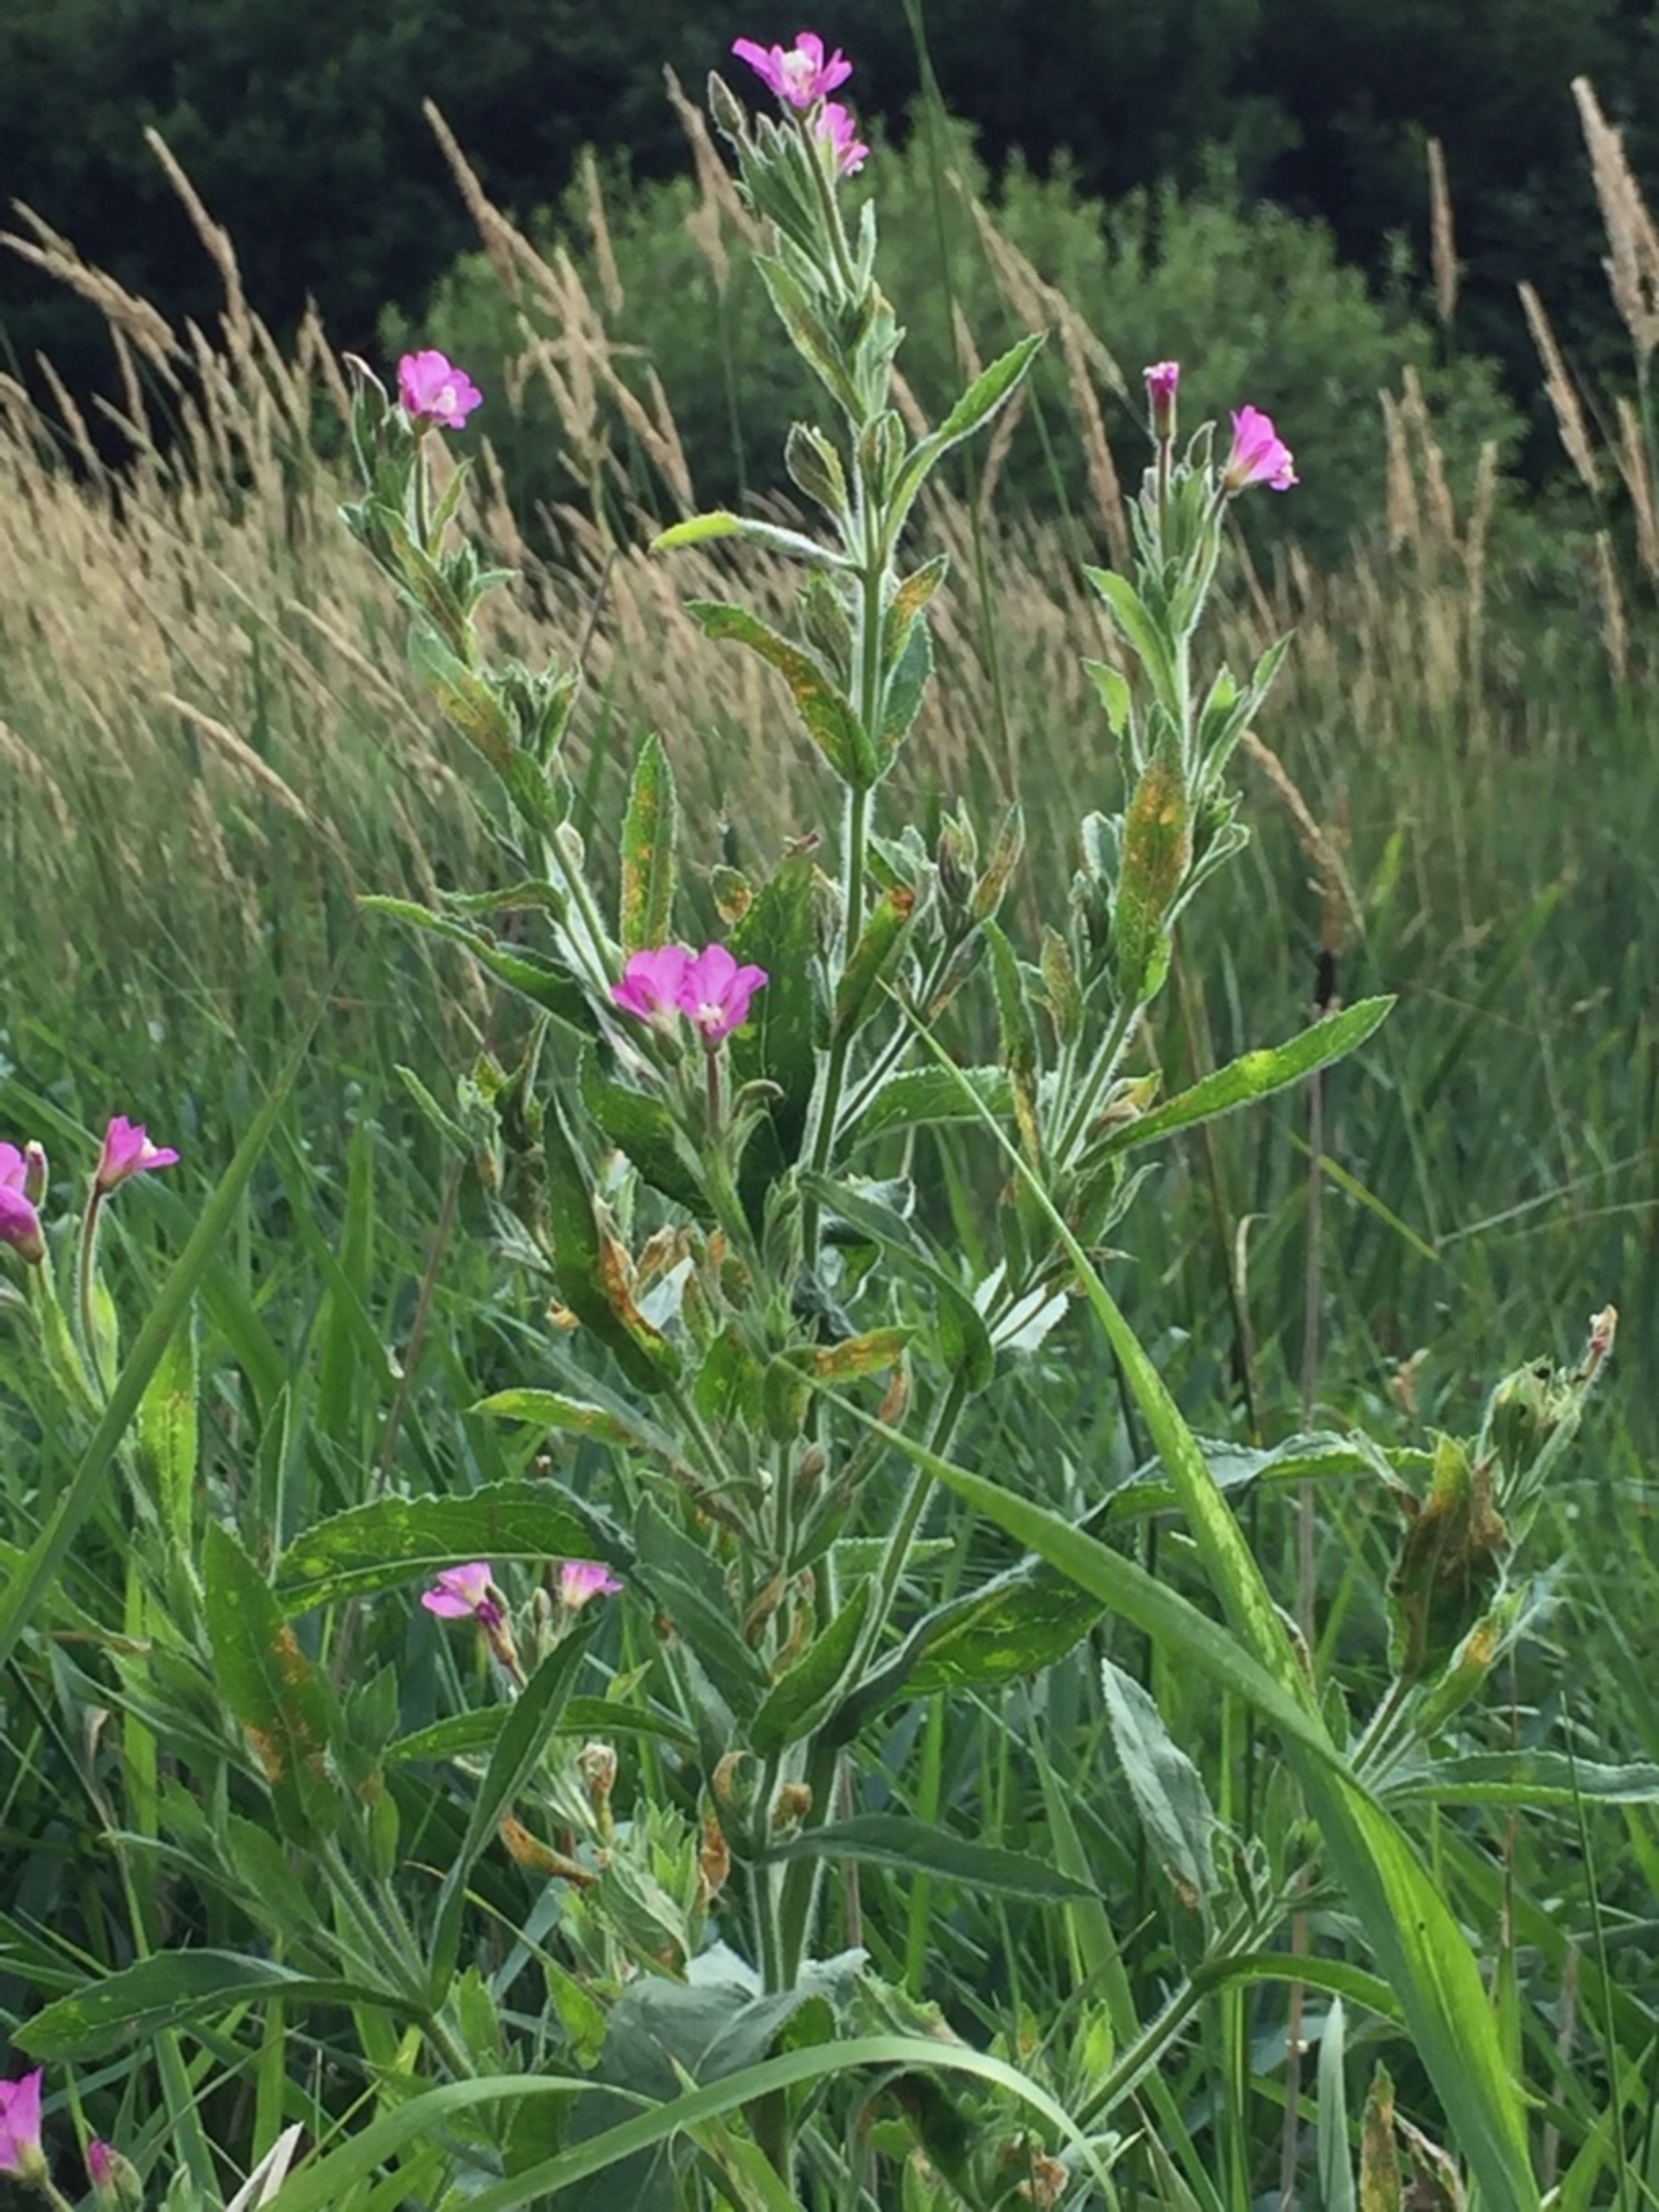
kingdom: Plantae
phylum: Tracheophyta
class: Magnoliopsida
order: Myrtales
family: Onagraceae
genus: Epilobium
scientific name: Epilobium hirsutum
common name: Lådden dueurt
